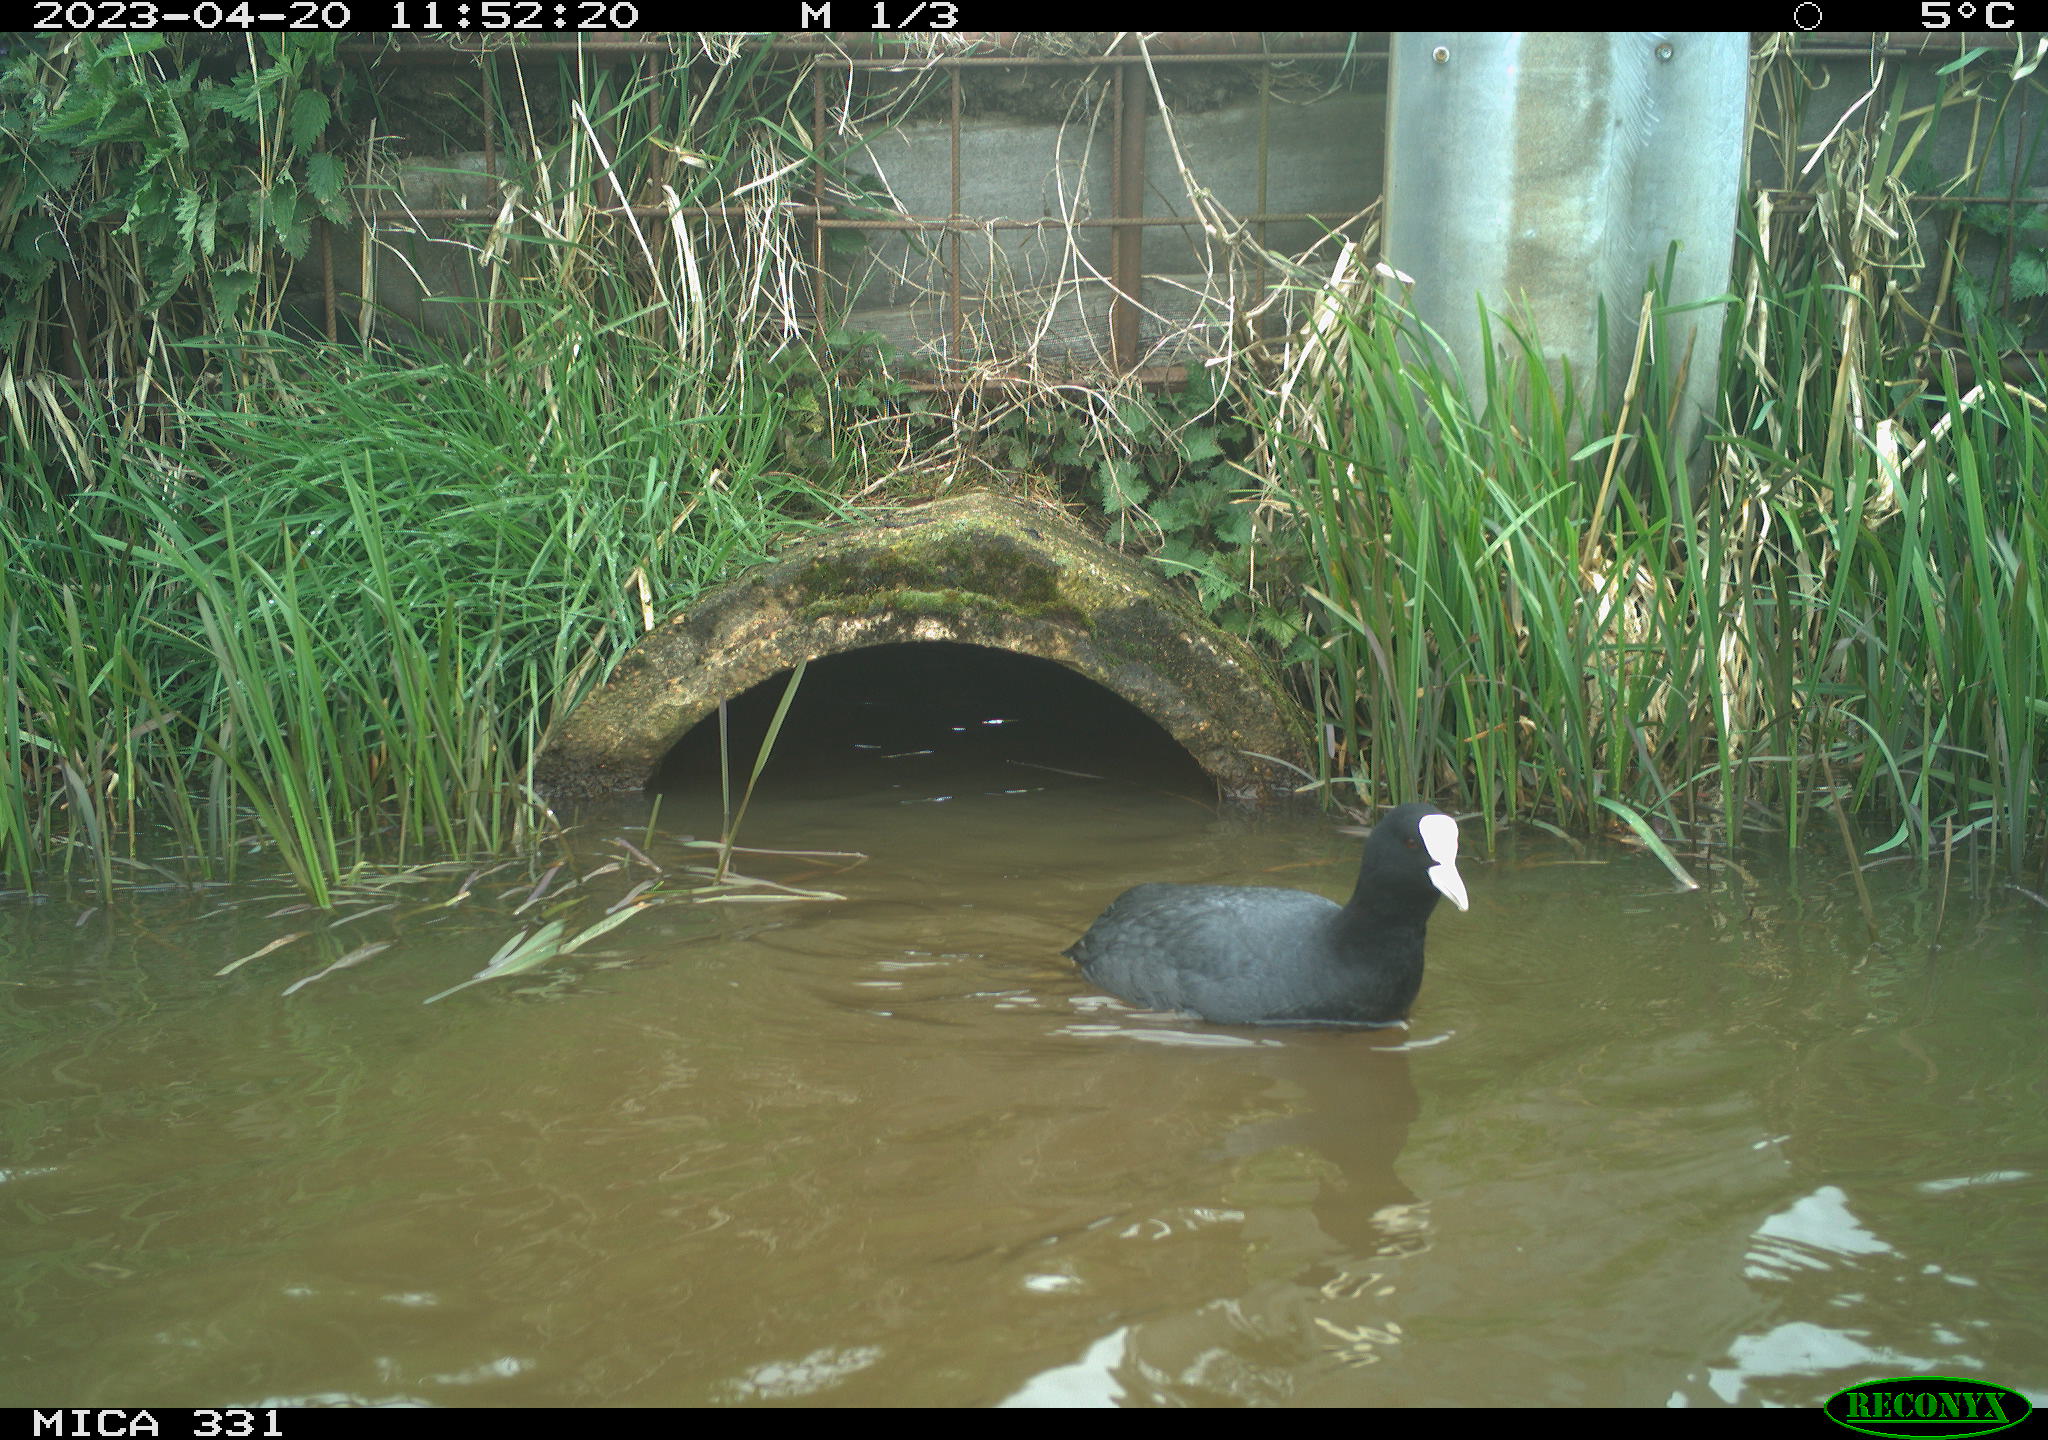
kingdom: Animalia
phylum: Chordata
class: Aves
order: Gruiformes
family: Rallidae
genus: Fulica
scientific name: Fulica atra
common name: Eurasian coot
